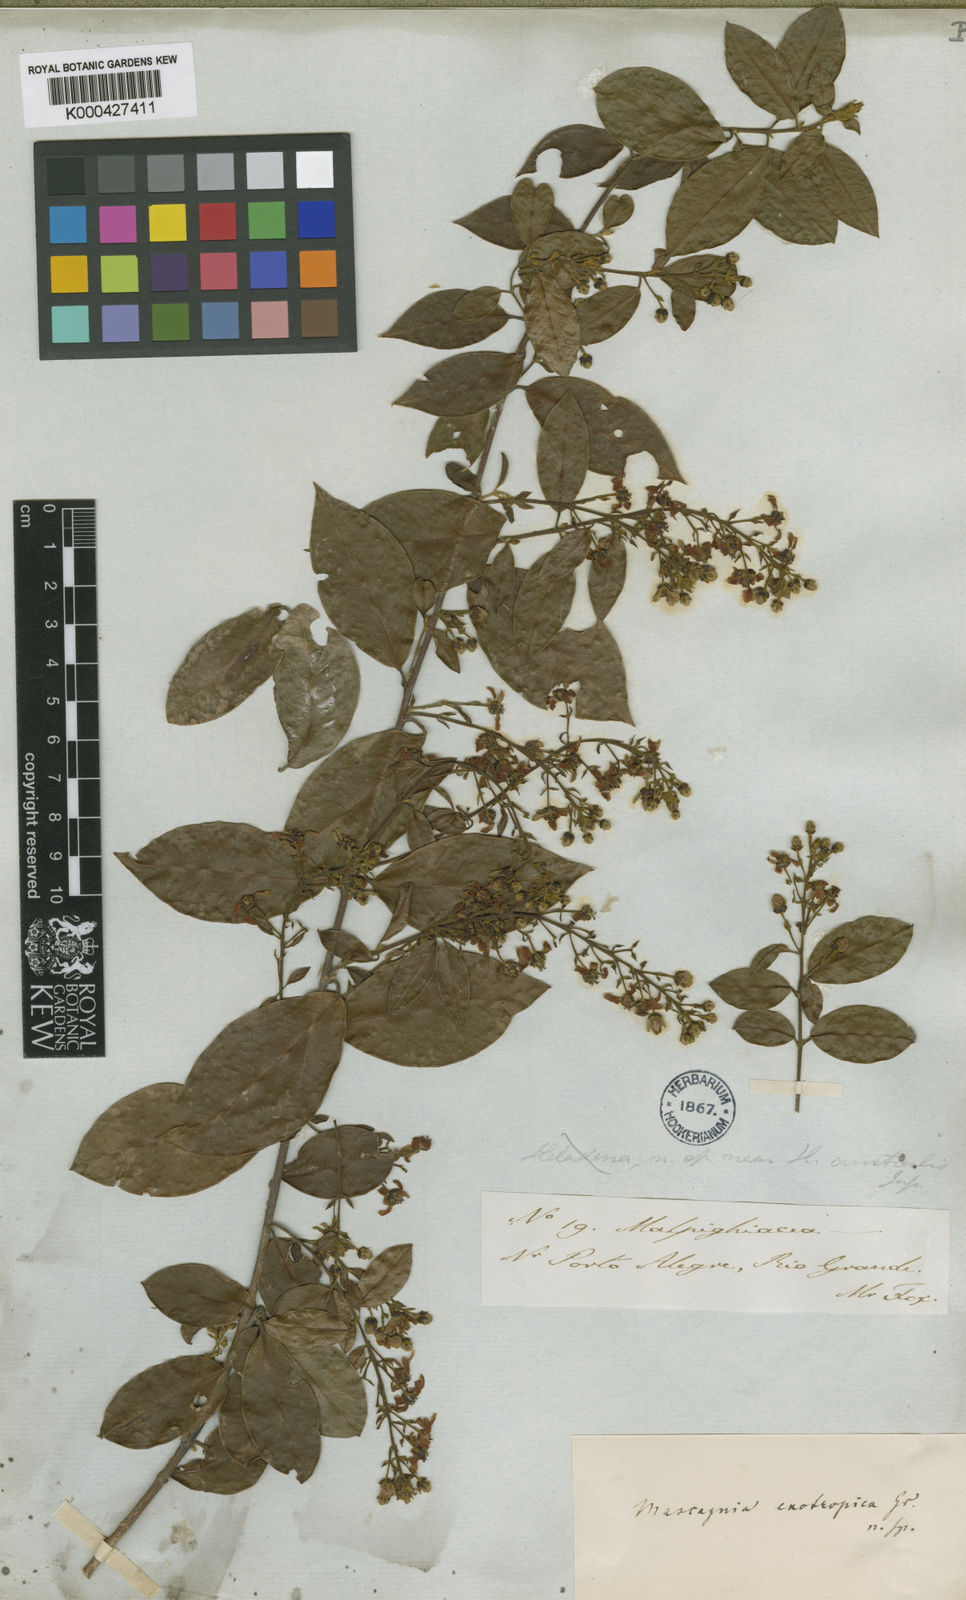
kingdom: Plantae
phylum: Tracheophyta
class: Magnoliopsida
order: Malpighiales
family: Malpighiaceae
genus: Amorimia
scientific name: Amorimia exotropica
